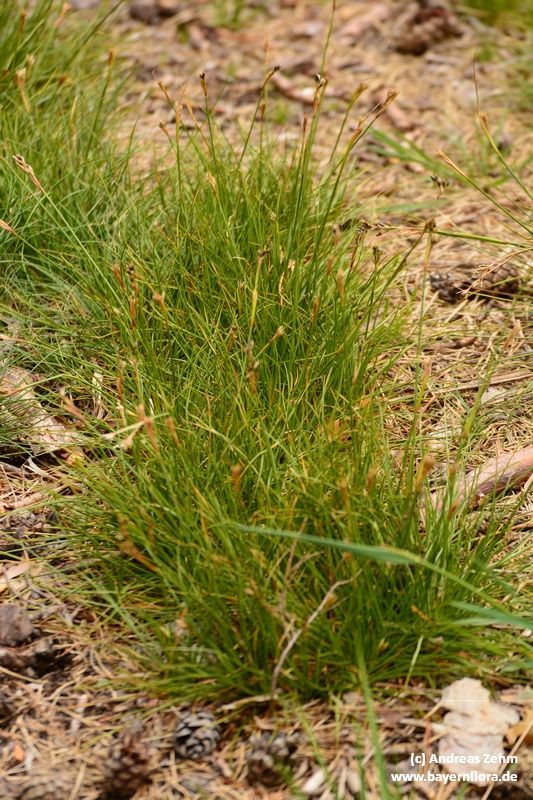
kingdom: Plantae
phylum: Tracheophyta
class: Liliopsida
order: Poales
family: Juncaceae
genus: Juncus
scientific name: Juncus squarrosus
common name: Heath rush
